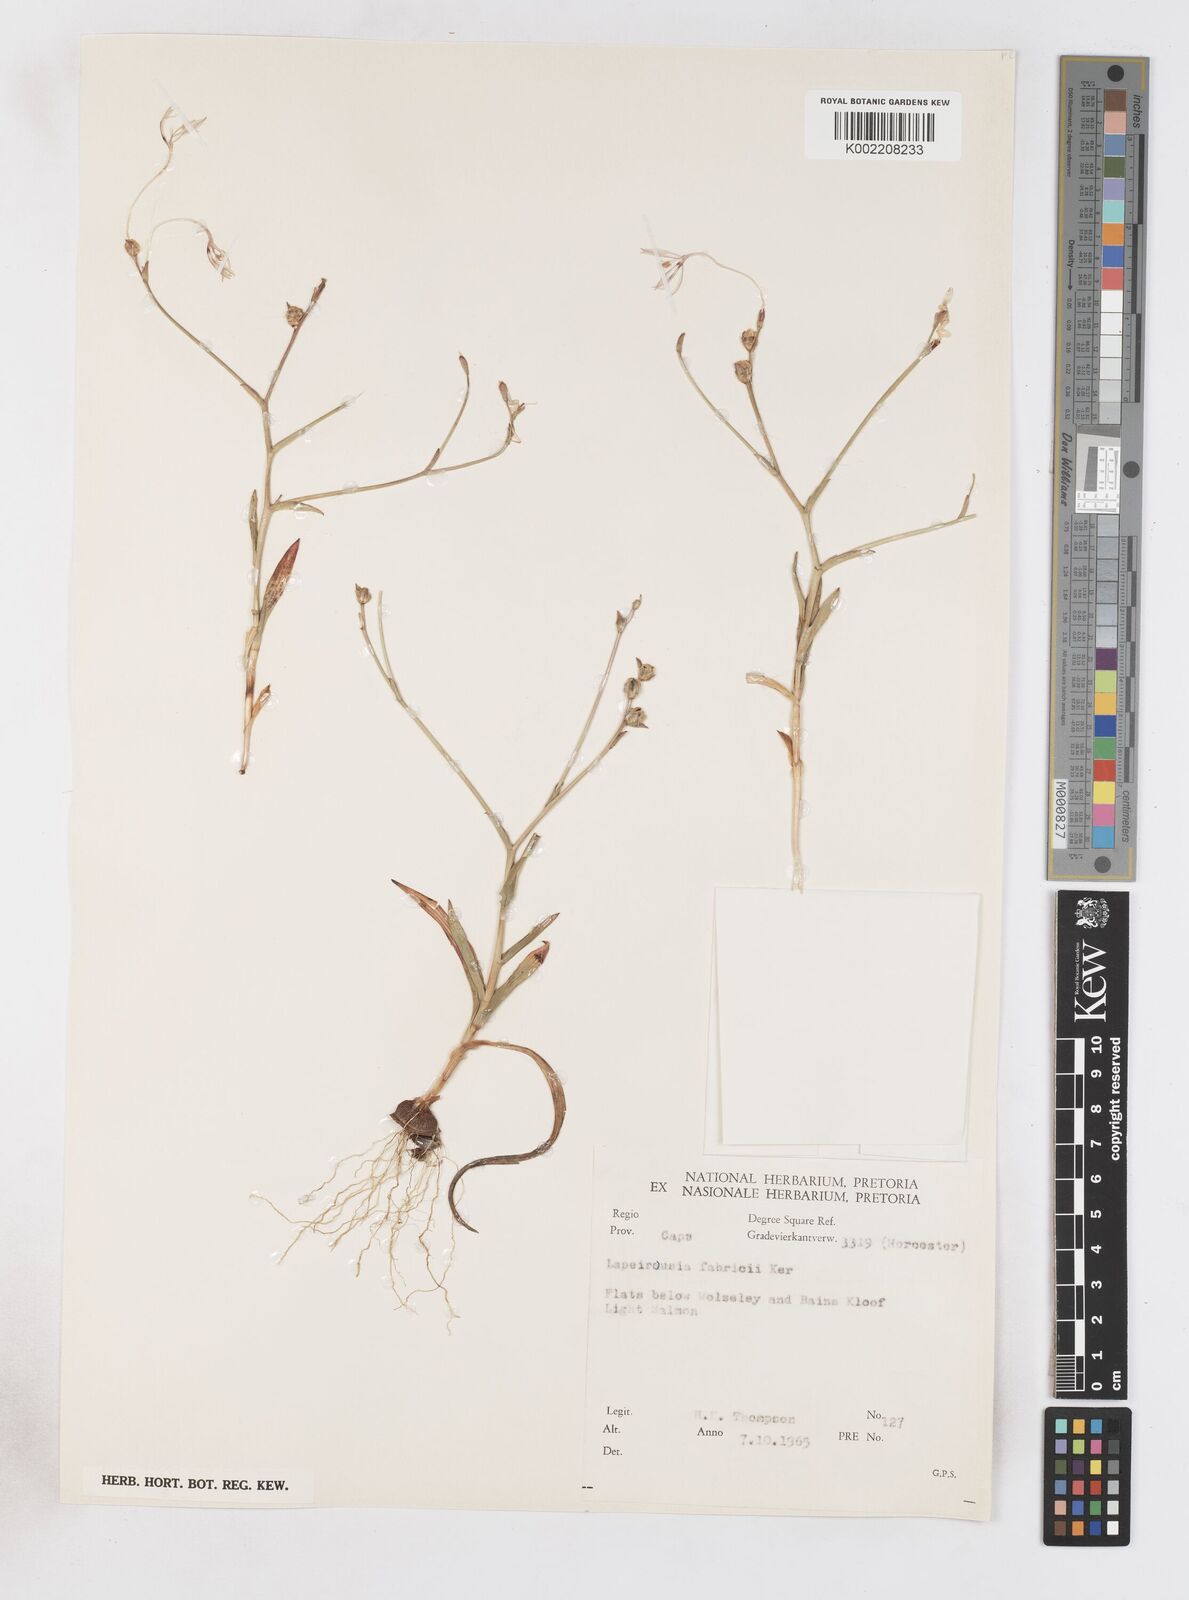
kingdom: Plantae
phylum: Tracheophyta
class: Liliopsida
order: Asparagales
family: Iridaceae
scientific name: Iridaceae
